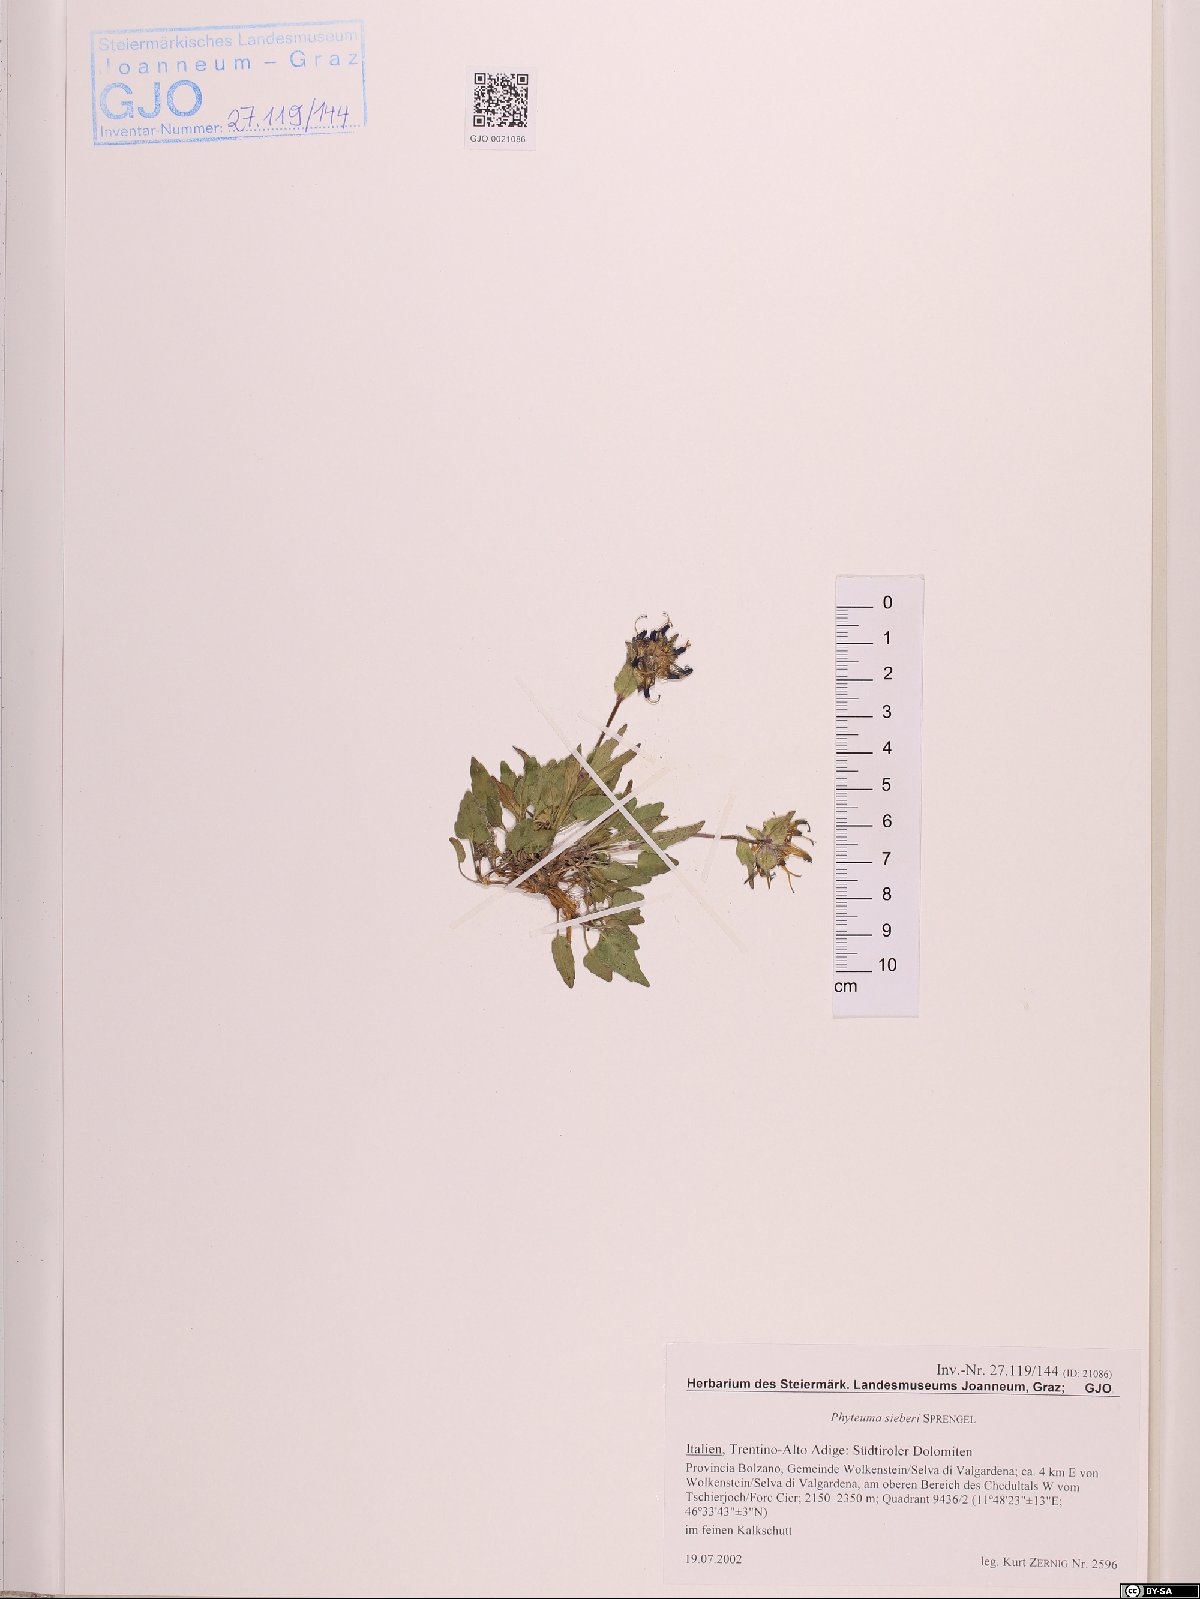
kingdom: Plantae
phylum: Tracheophyta
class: Magnoliopsida
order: Asterales
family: Campanulaceae
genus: Phyteuma
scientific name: Phyteuma sieberi
